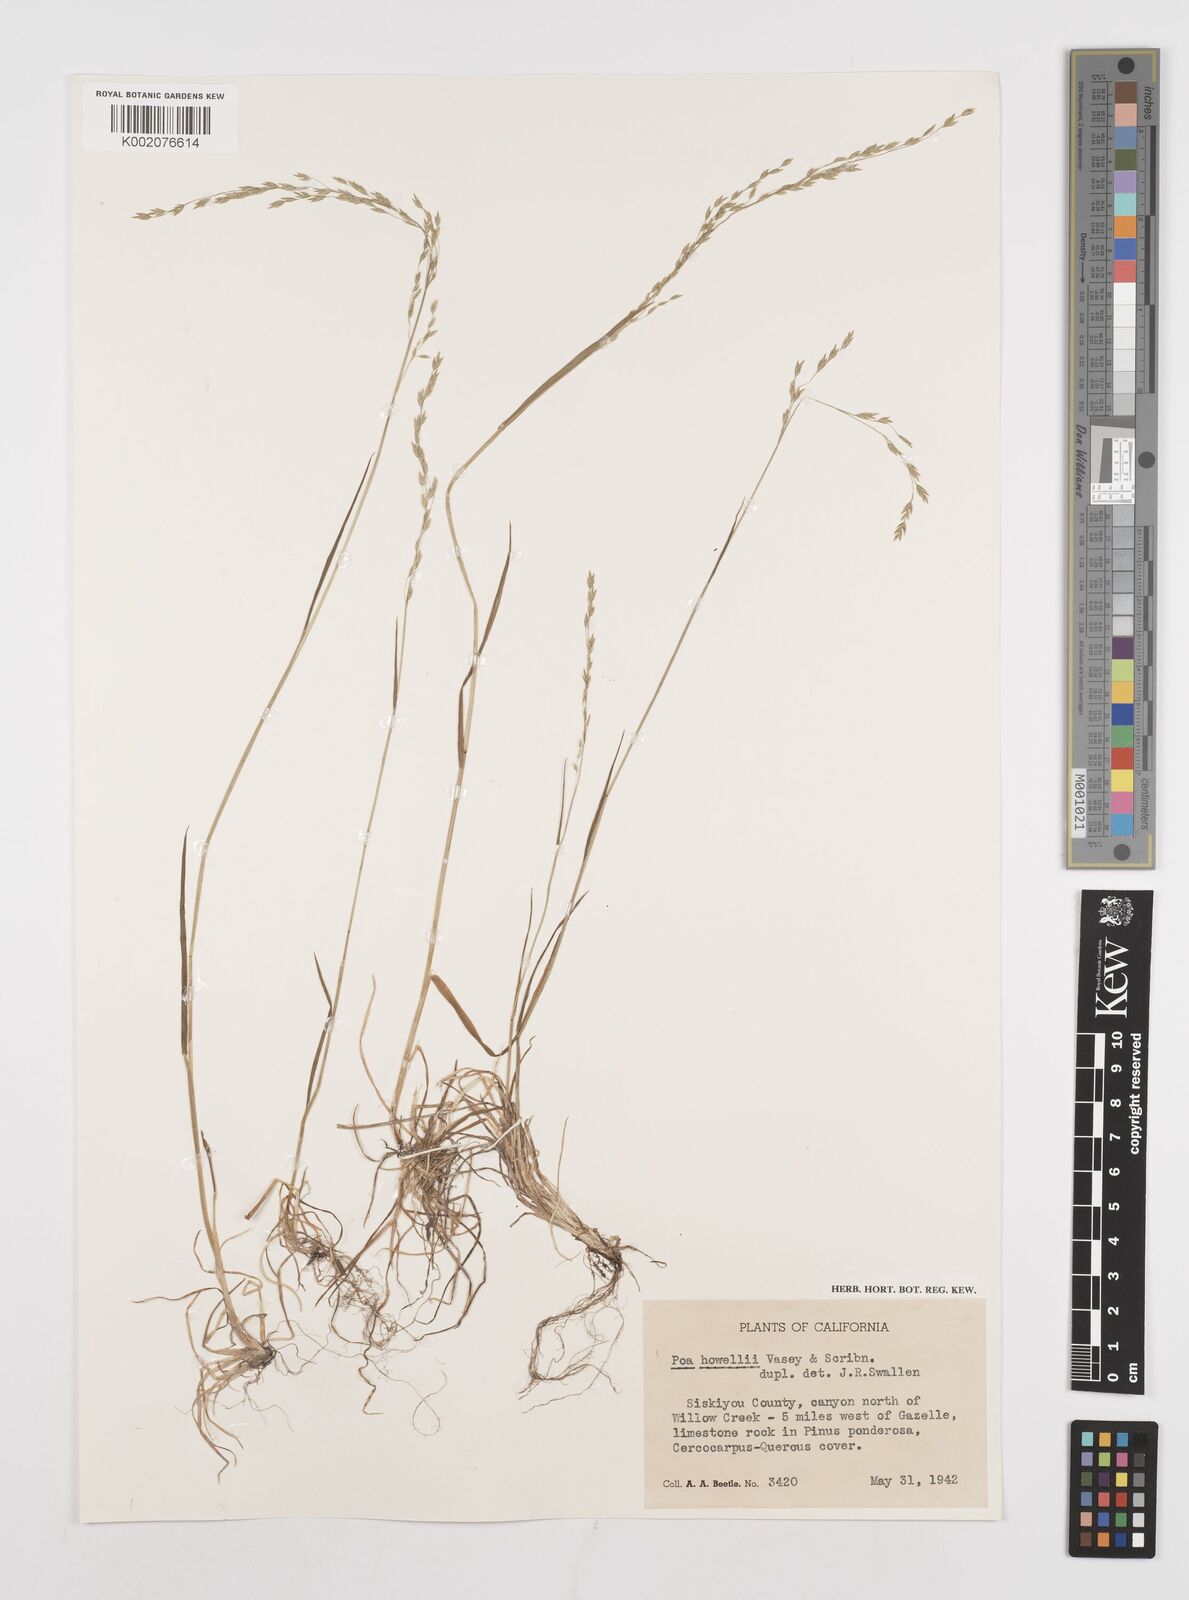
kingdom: Plantae
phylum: Tracheophyta
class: Liliopsida
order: Poales
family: Poaceae
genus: Poa
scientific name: Poa howellii
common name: Howell's bluegrass
